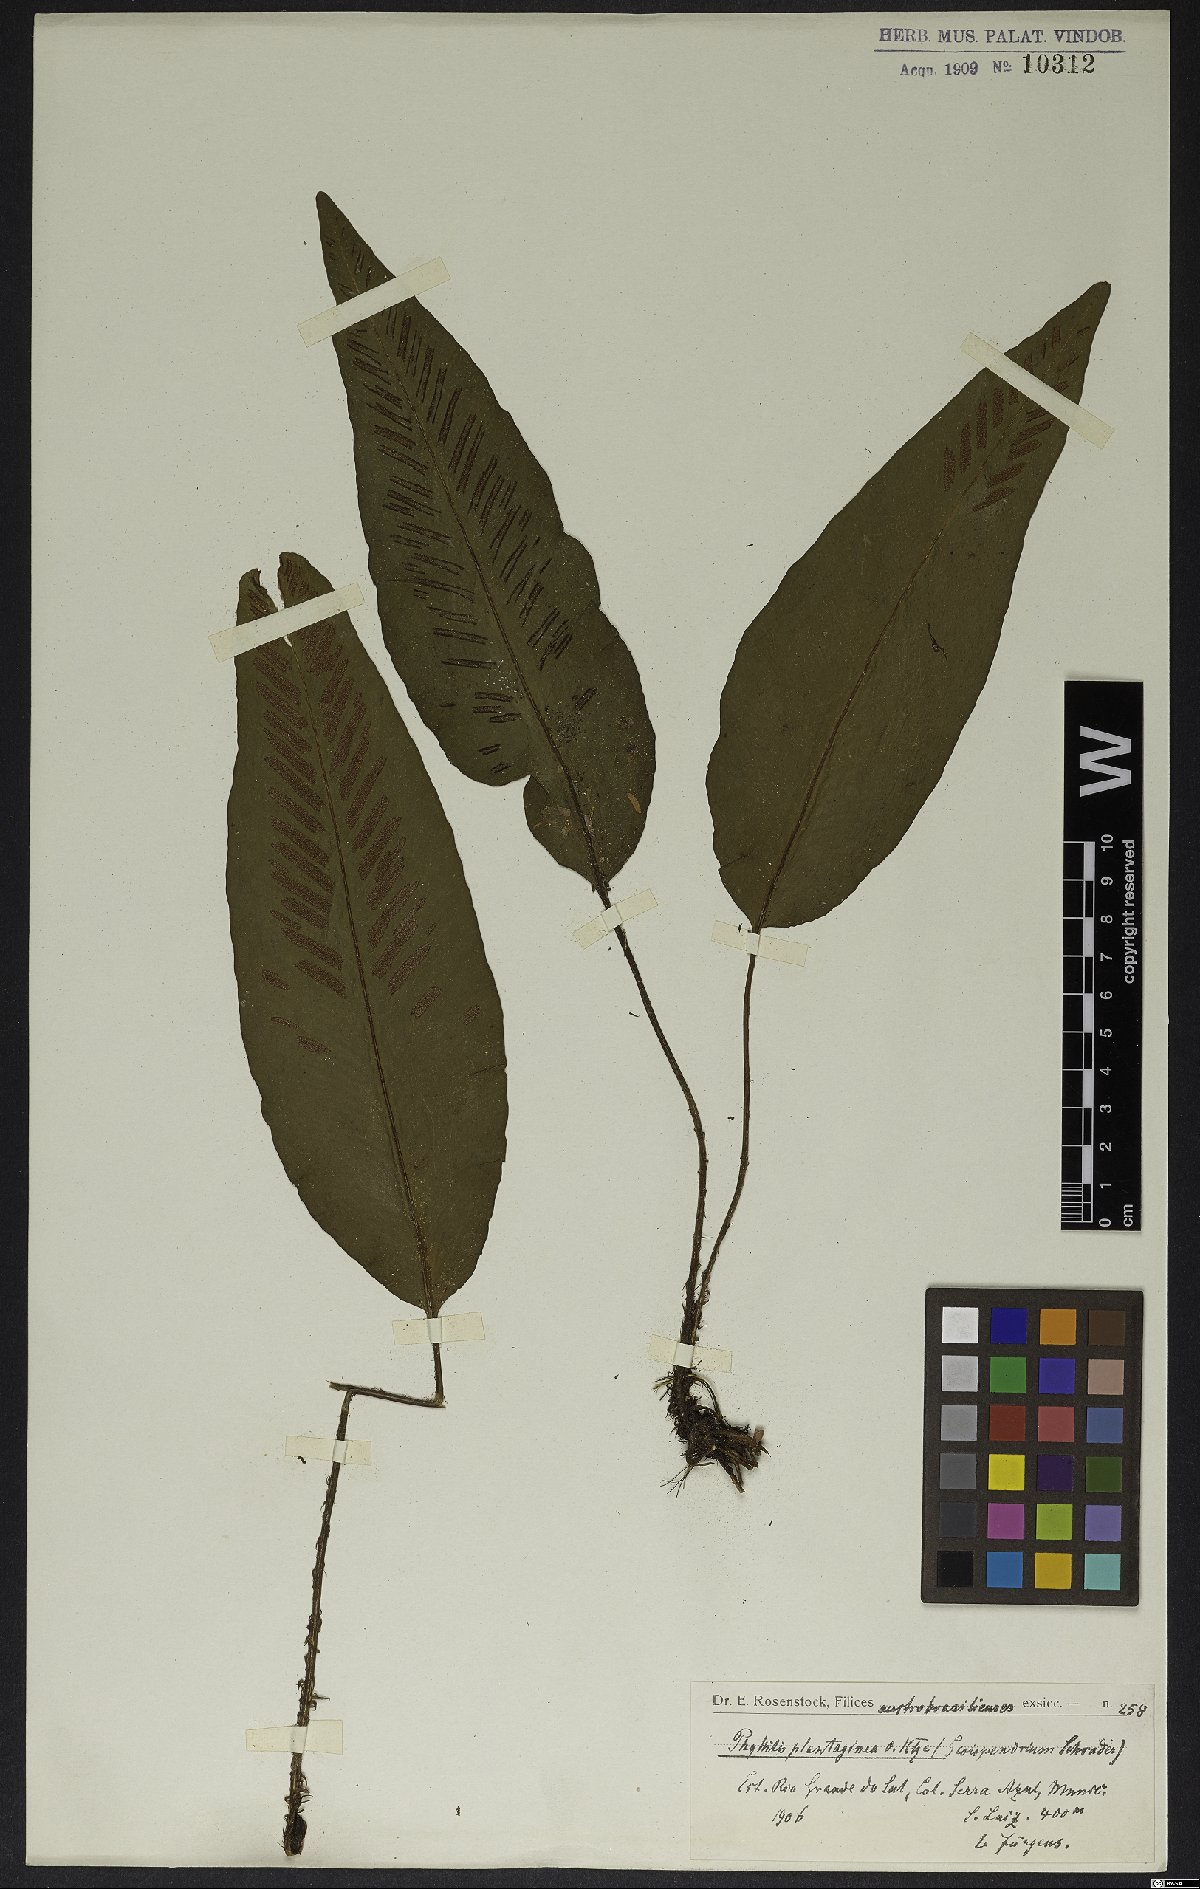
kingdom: Plantae
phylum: Tracheophyta
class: Polypodiopsida
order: Polypodiales
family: Athyriaceae
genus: Diplazium
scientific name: Diplazium plantaginifolium
